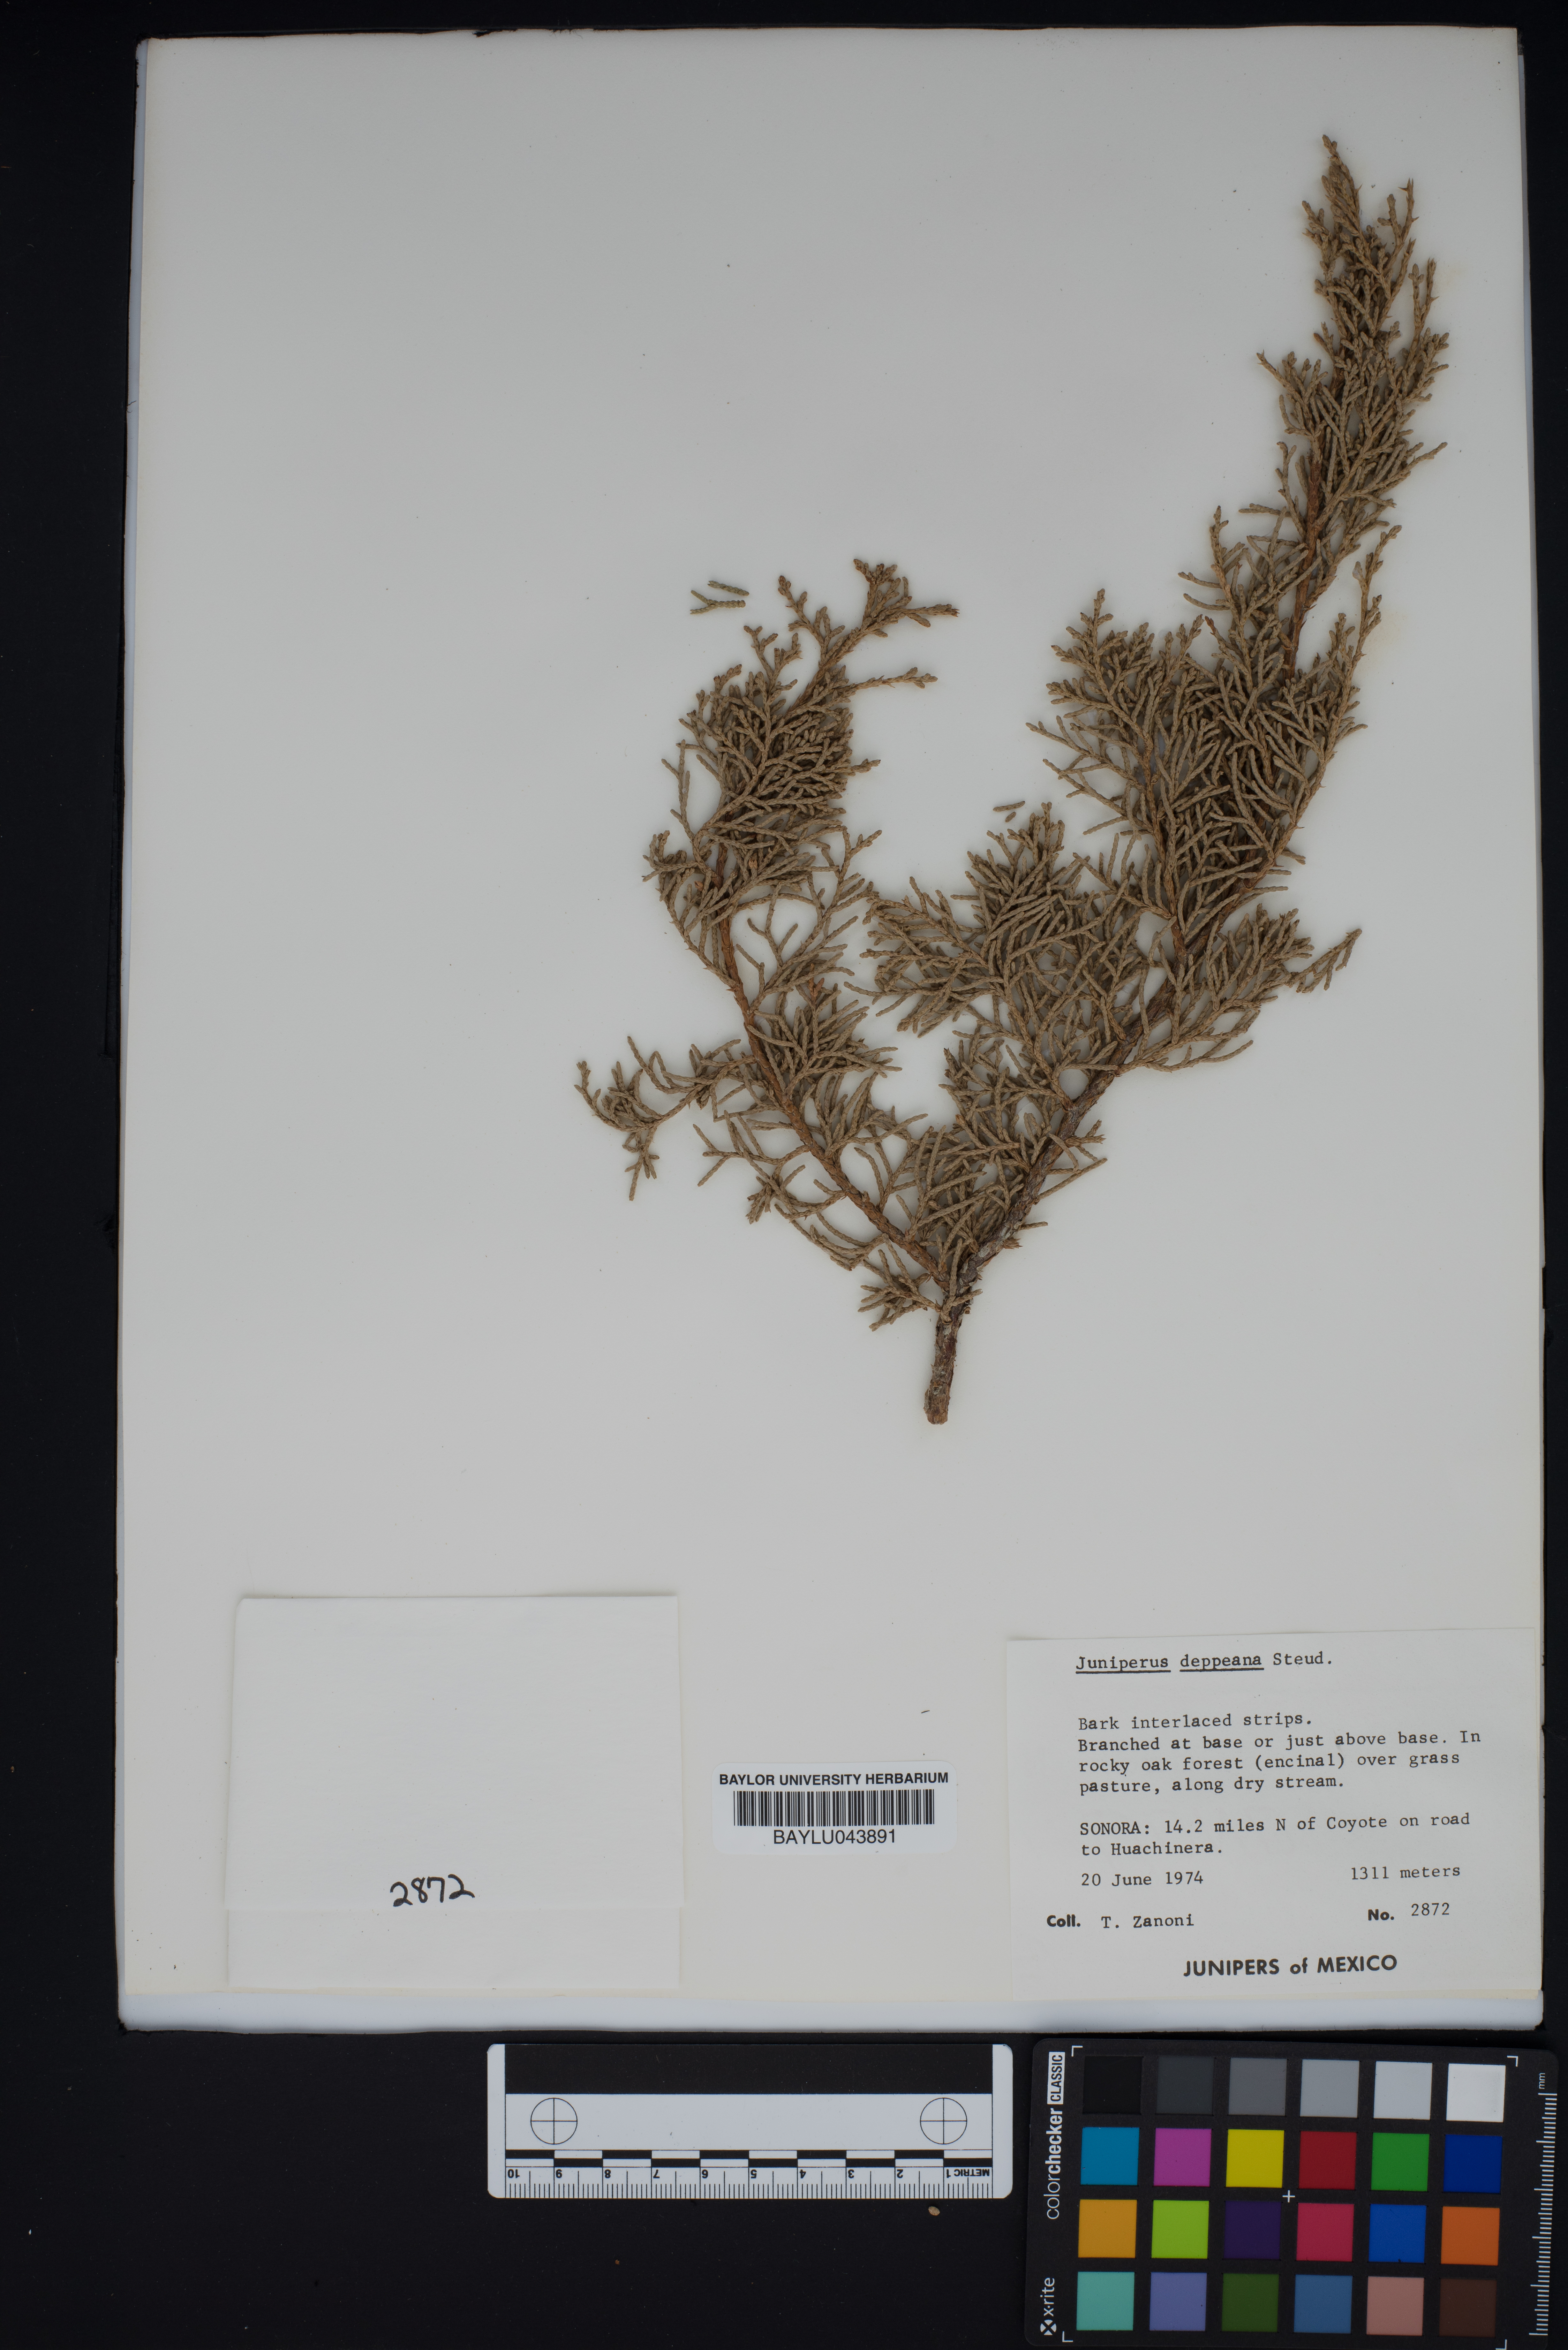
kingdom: Plantae
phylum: Tracheophyta
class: Pinopsida
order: Pinales
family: Cupressaceae
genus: Juniperus
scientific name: Juniperus deppeana
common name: Alligator juniper
